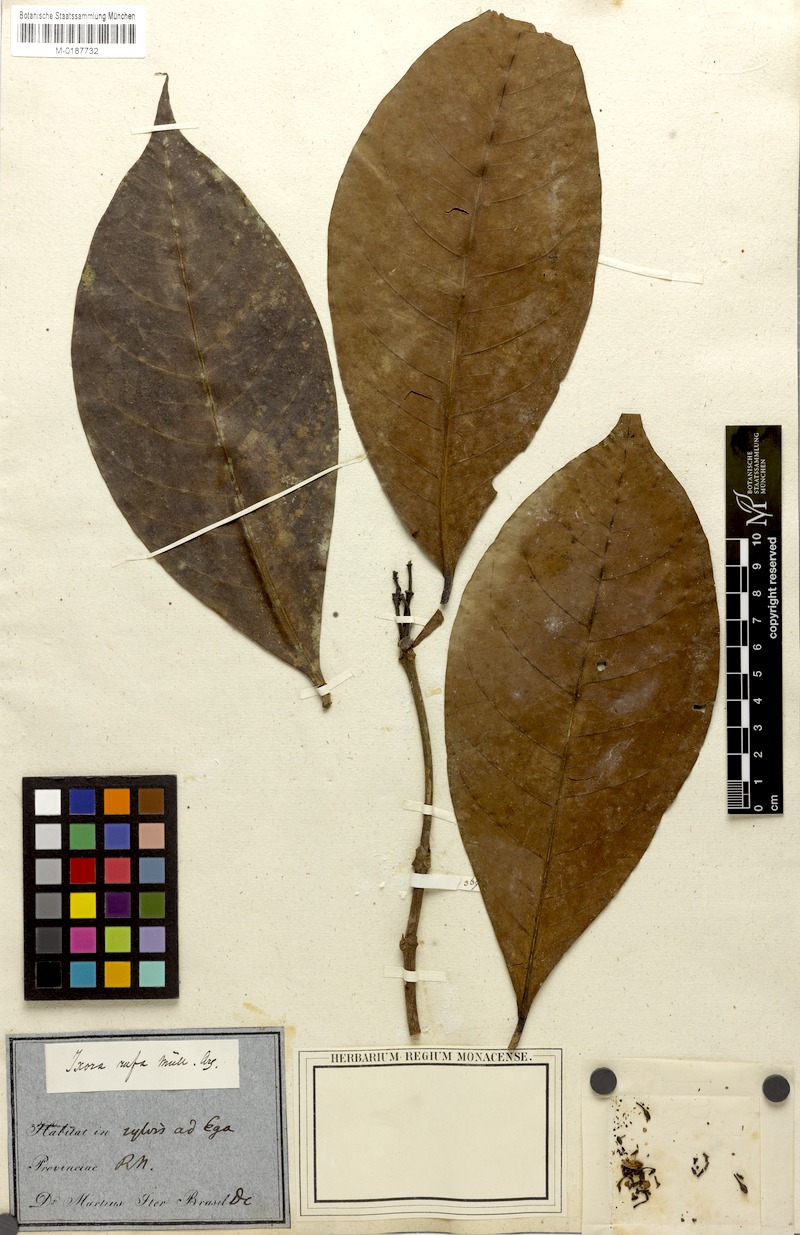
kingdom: Plantae
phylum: Tracheophyta
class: Magnoliopsida
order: Gentianales
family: Rubiaceae
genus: Ixora
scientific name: Ixora rufa
